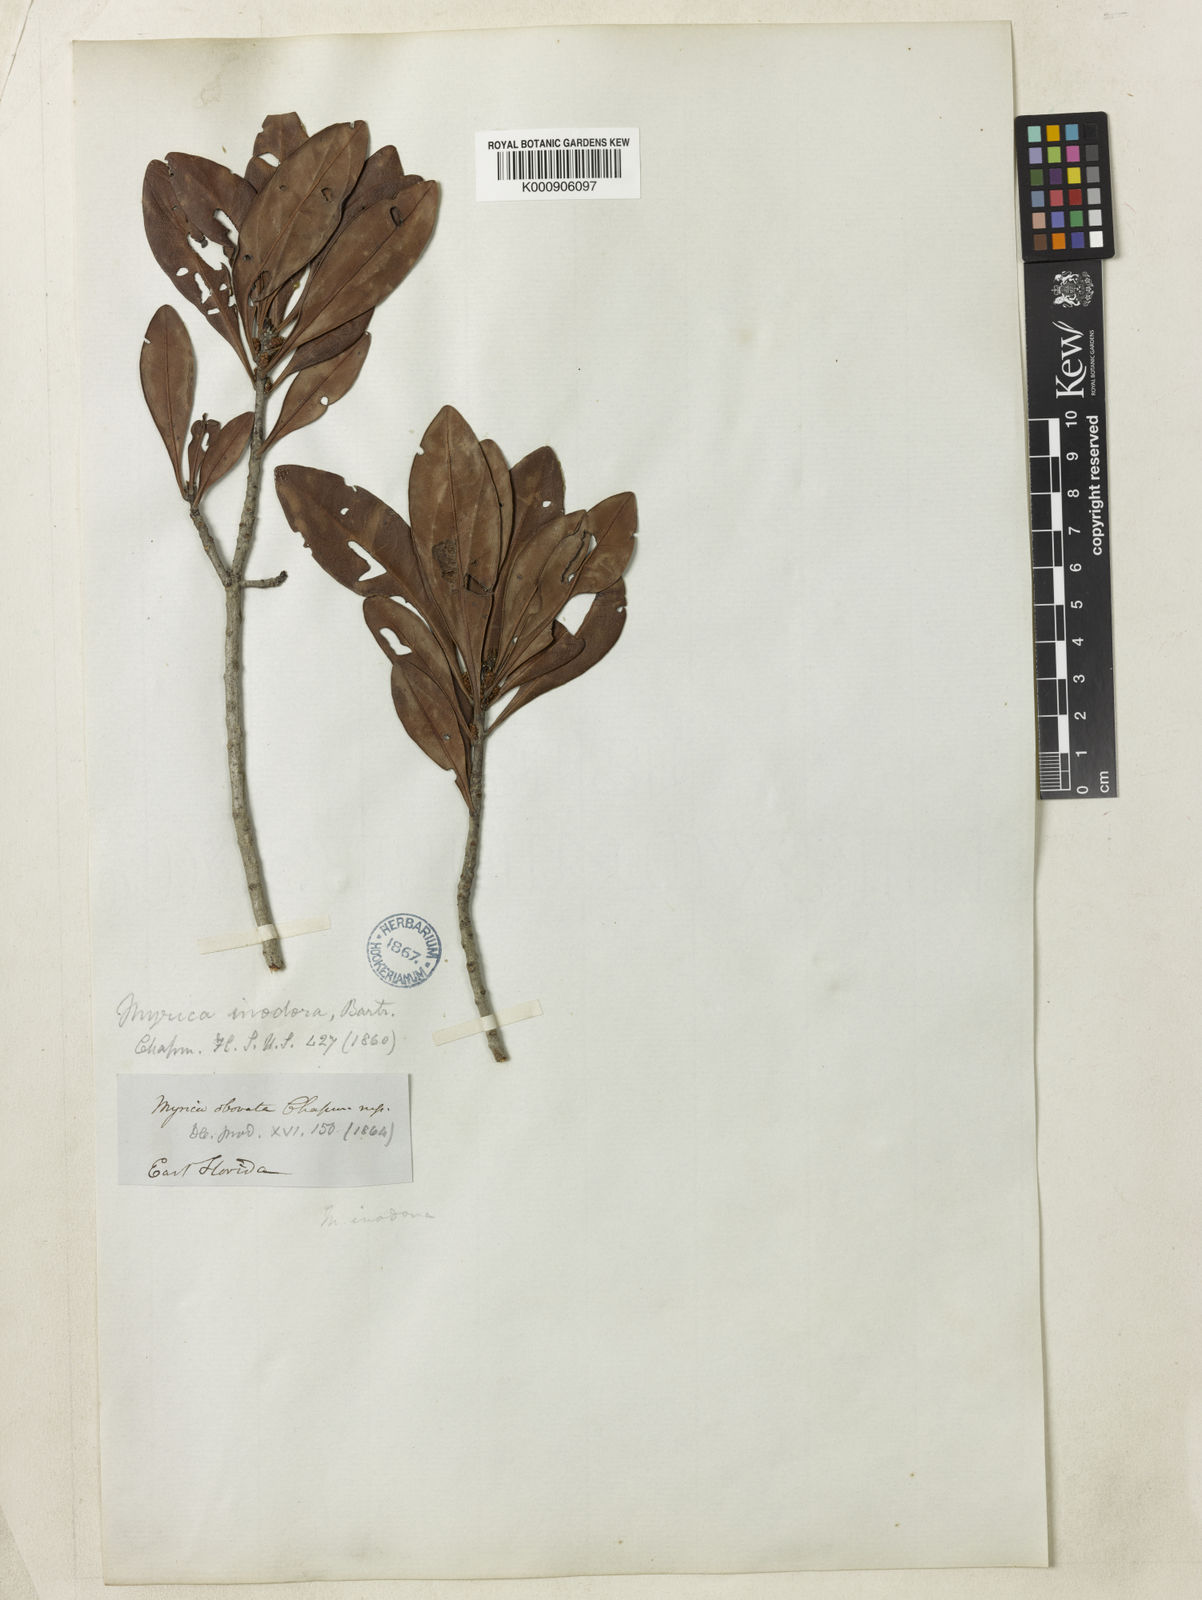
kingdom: Plantae
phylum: Tracheophyta
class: Magnoliopsida
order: Fagales
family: Myricaceae
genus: Morella
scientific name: Morella inodora
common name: Candle-berry
